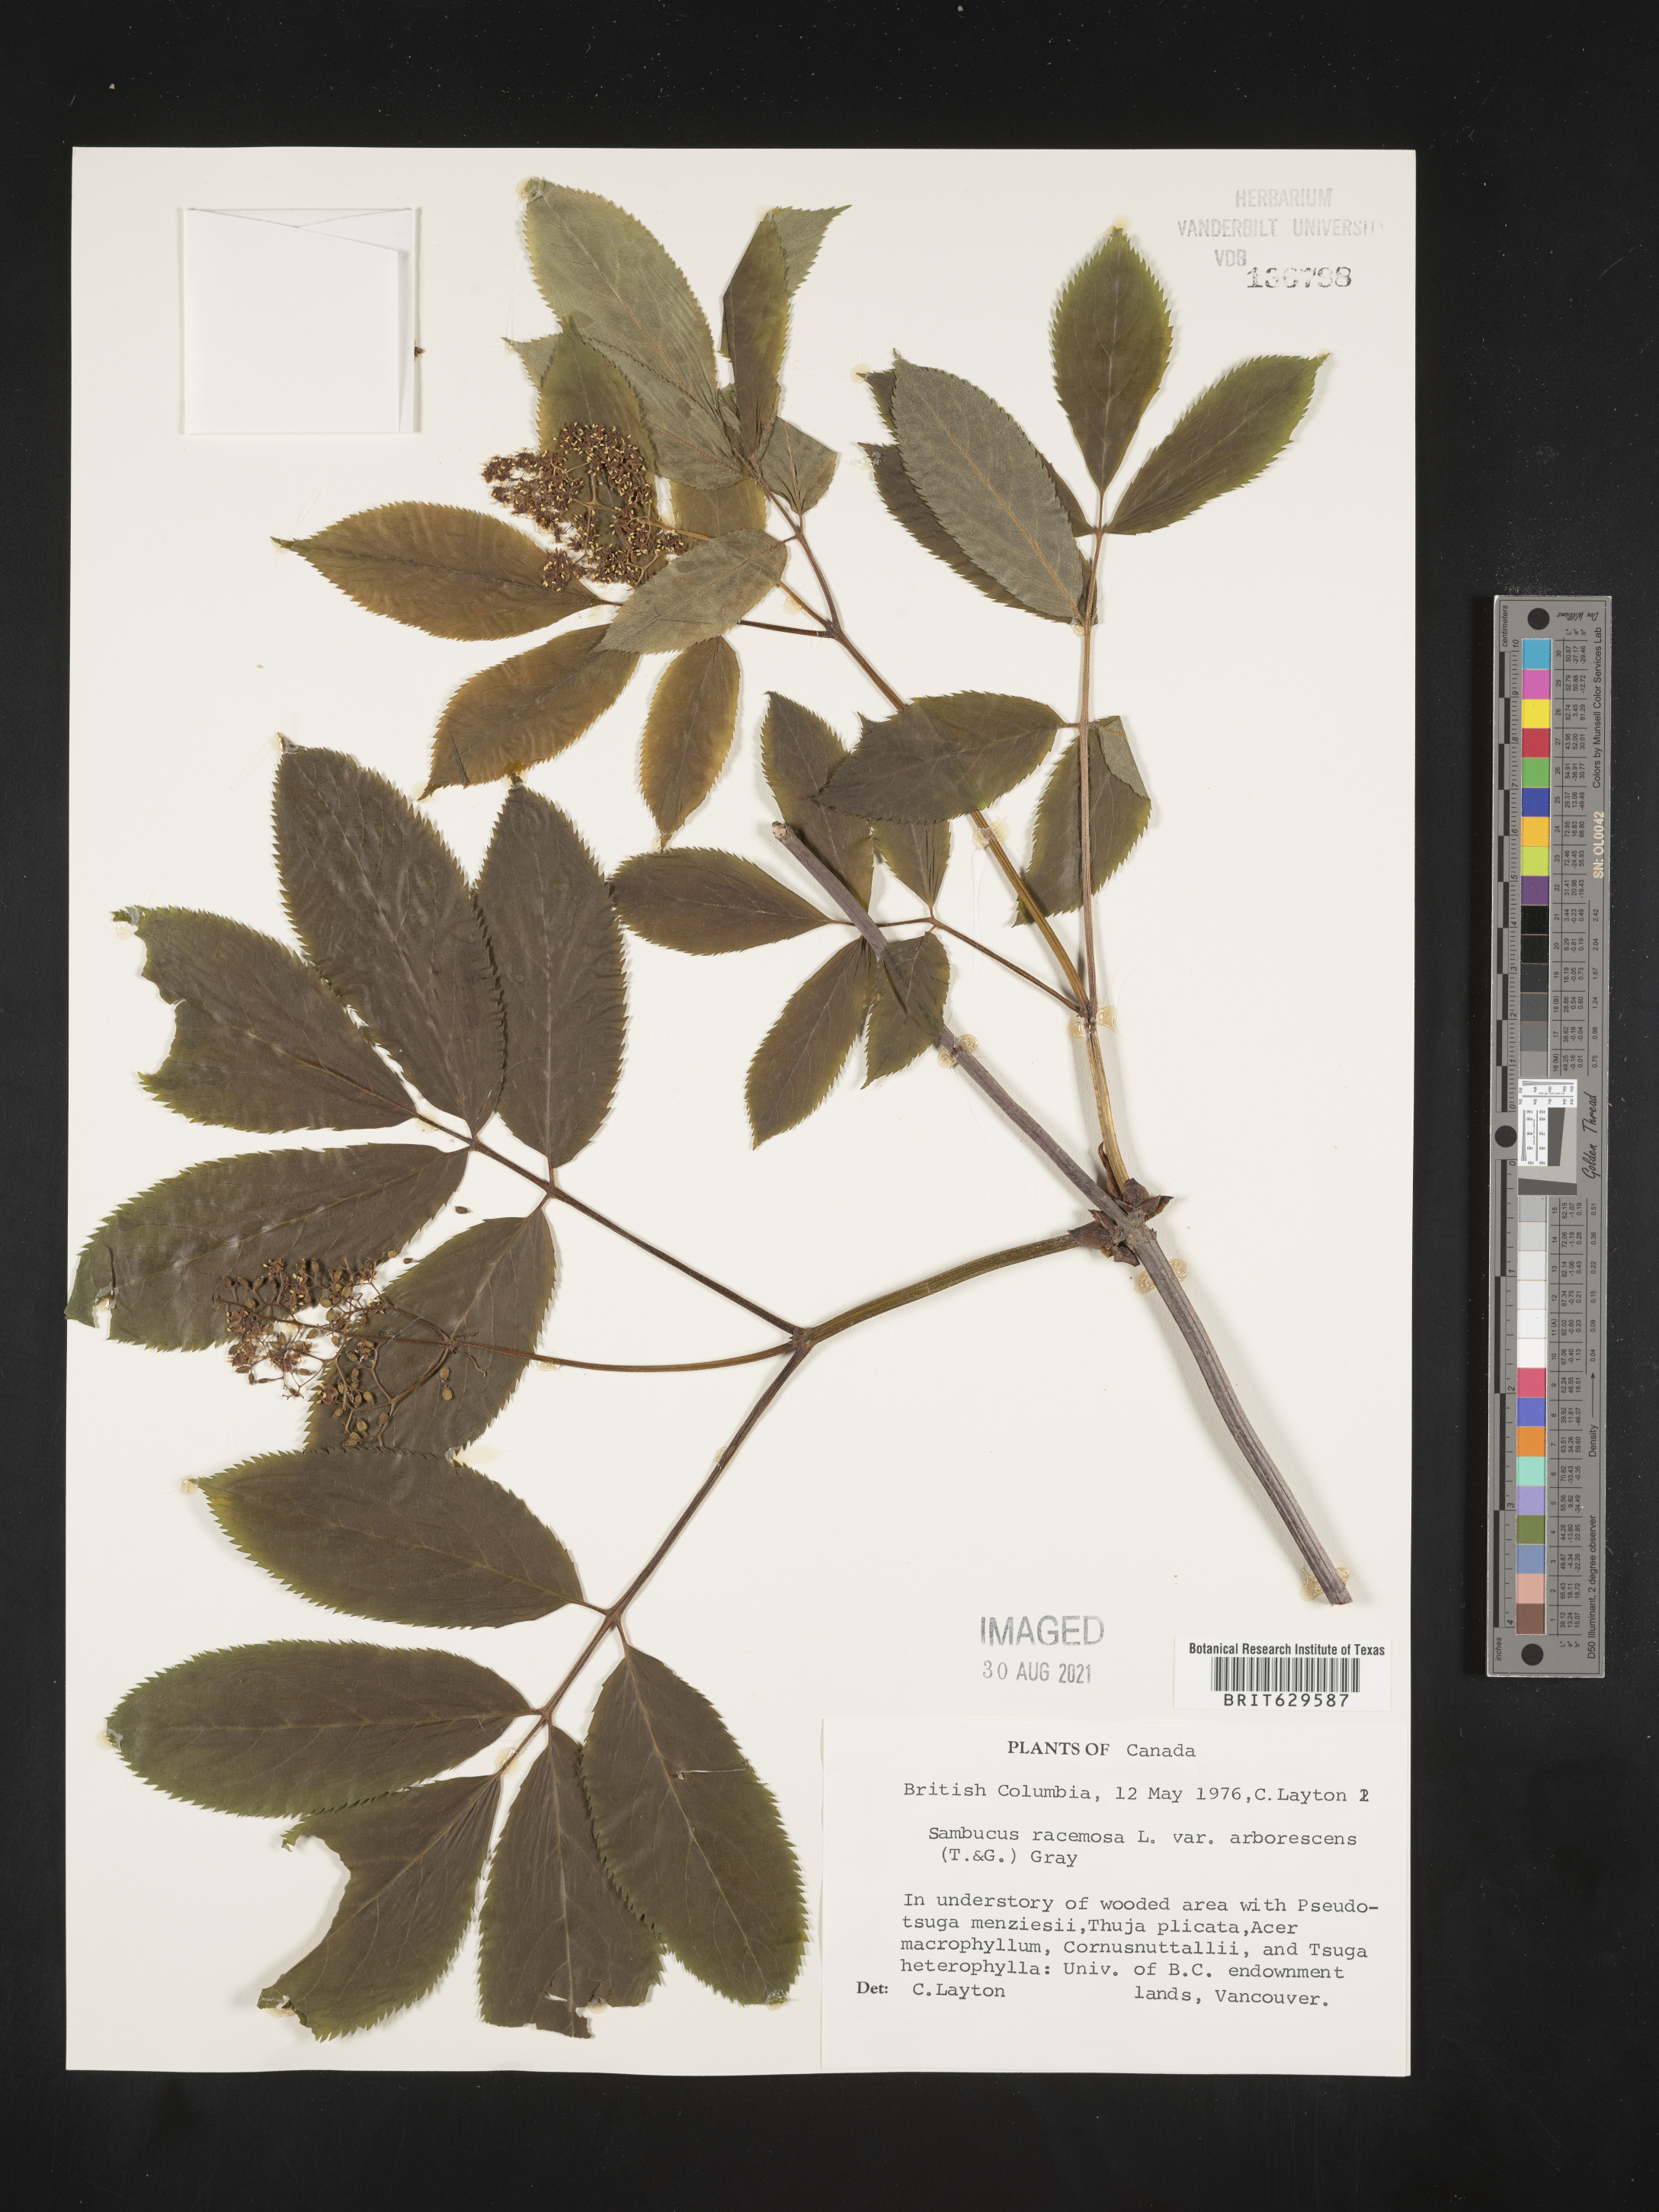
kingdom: Plantae
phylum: Tracheophyta
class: Magnoliopsida
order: Dipsacales
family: Viburnaceae
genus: Sambucus
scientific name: Sambucus racemosa
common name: Red-berried elder
